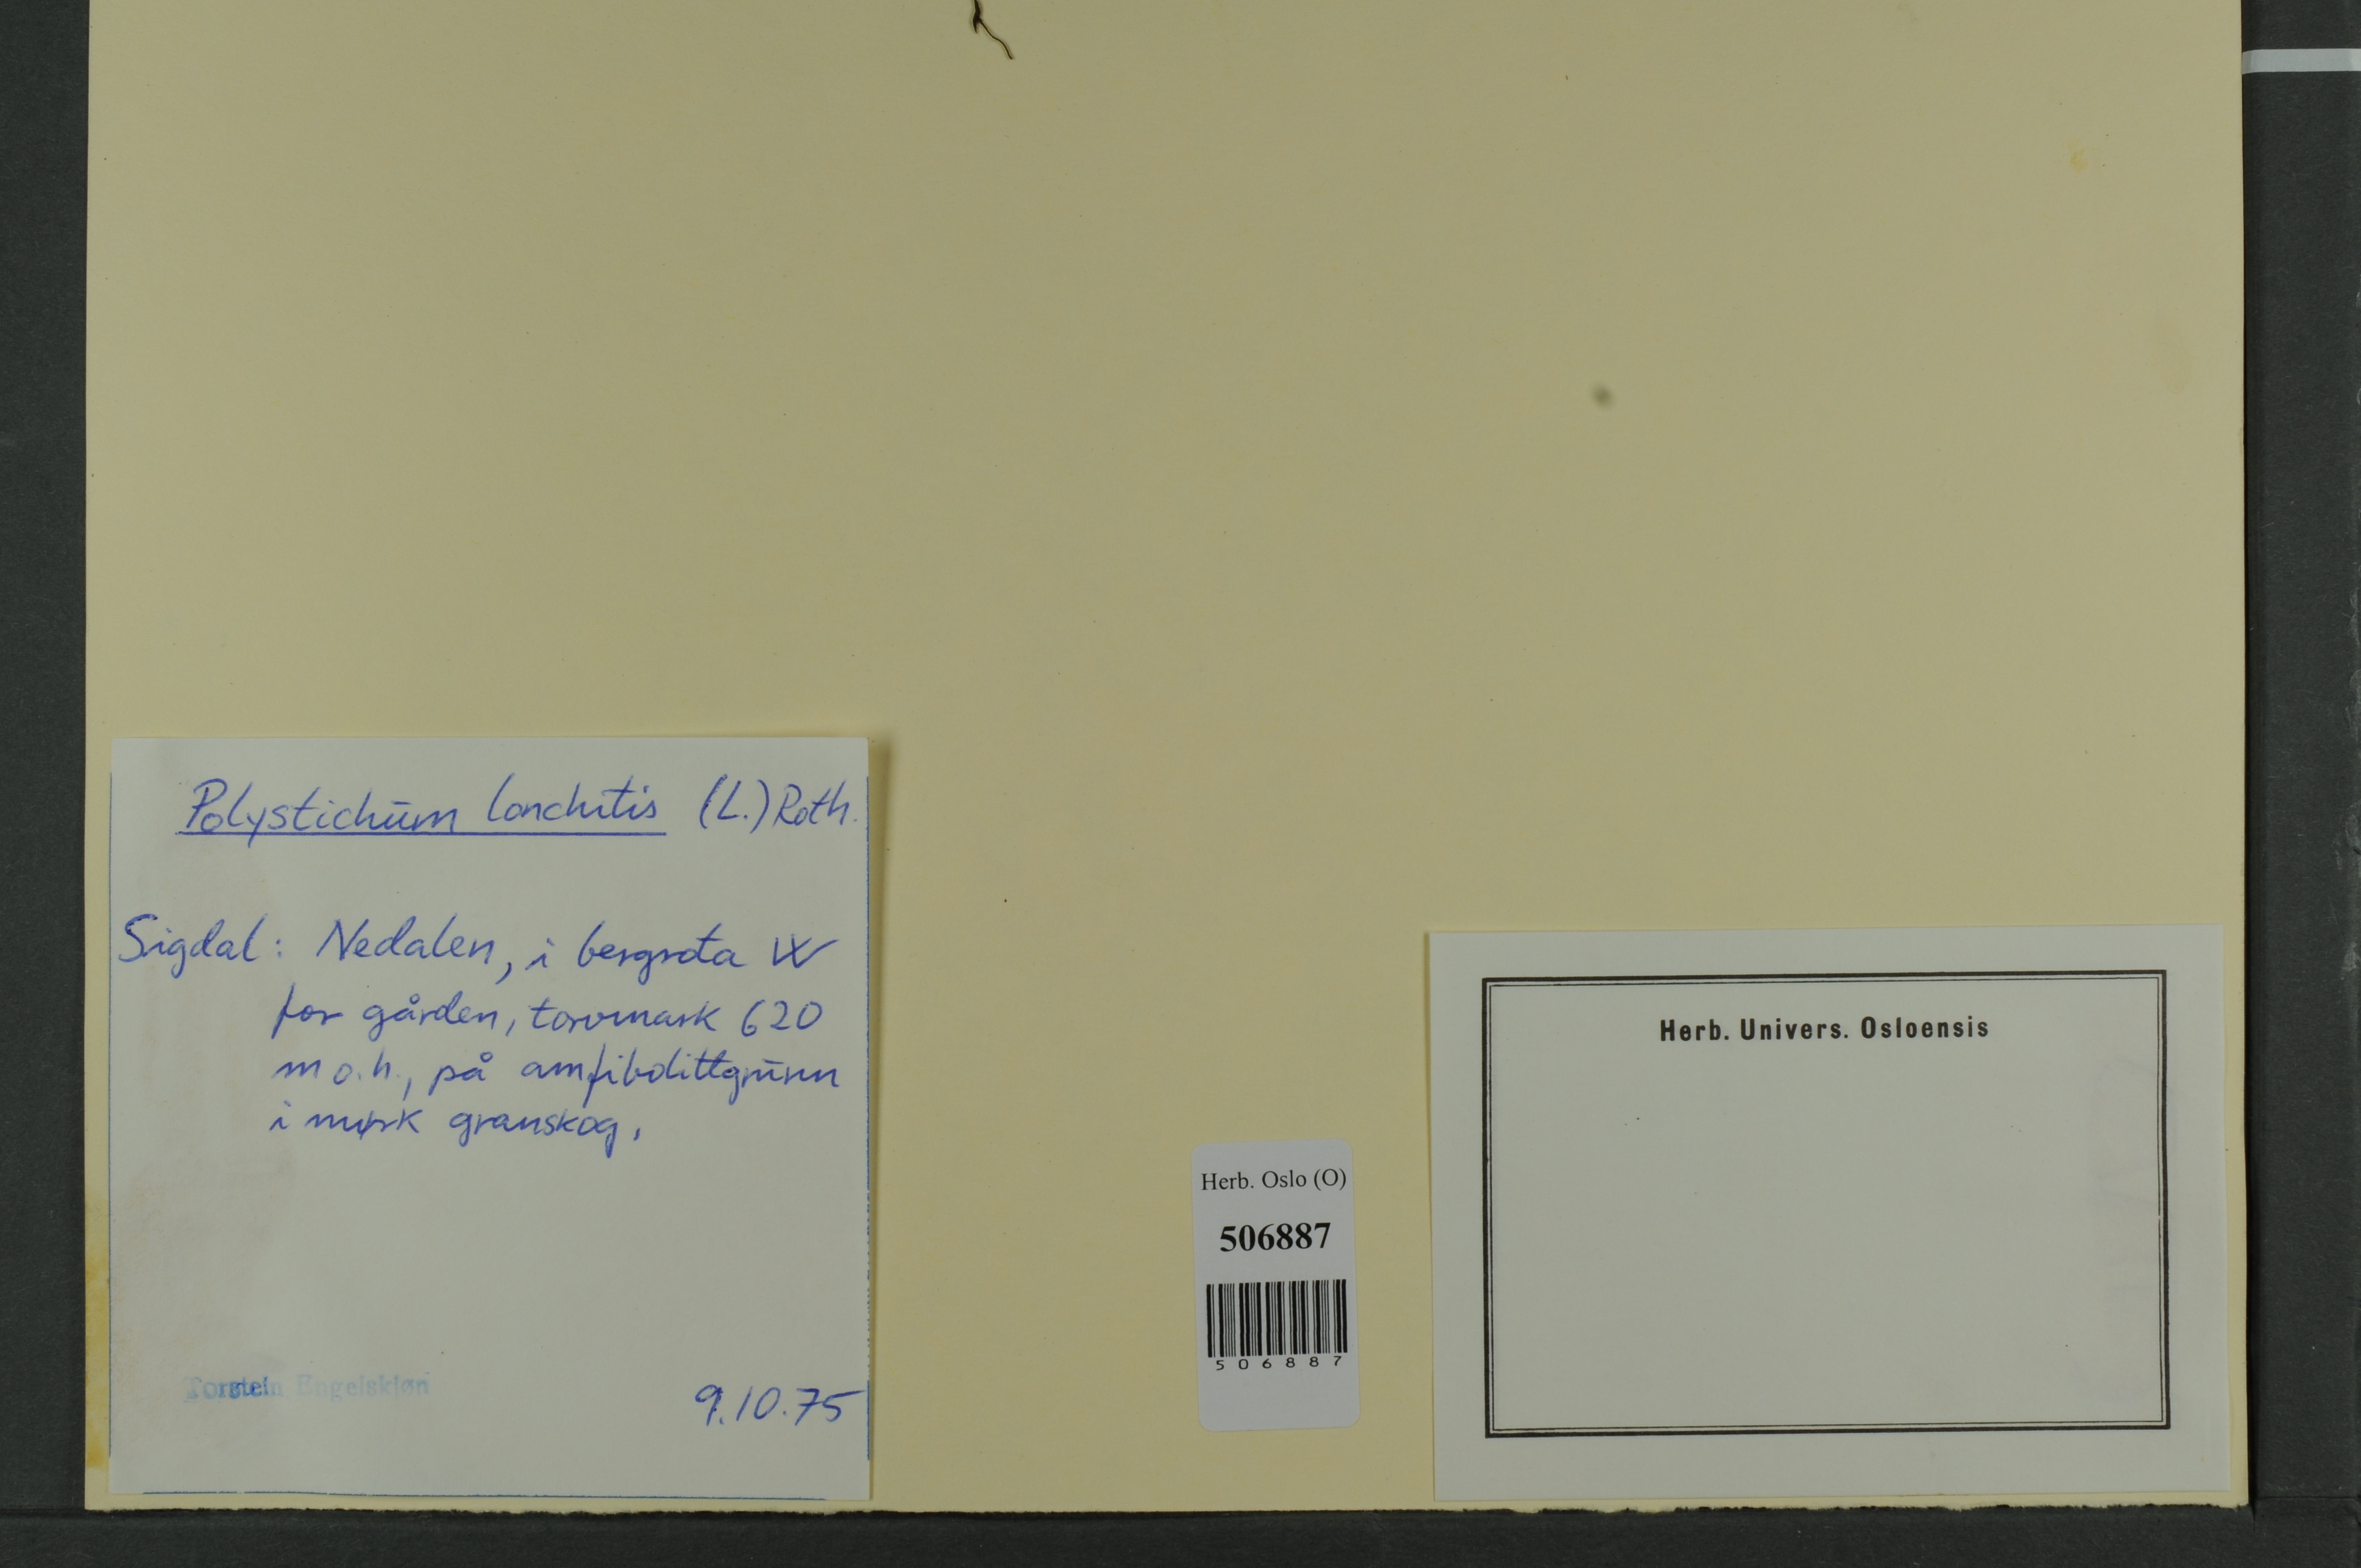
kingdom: Plantae
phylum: Tracheophyta
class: Polypodiopsida
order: Polypodiales
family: Dryopteridaceae
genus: Polystichum
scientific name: Polystichum lonchitis
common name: Holly fern
